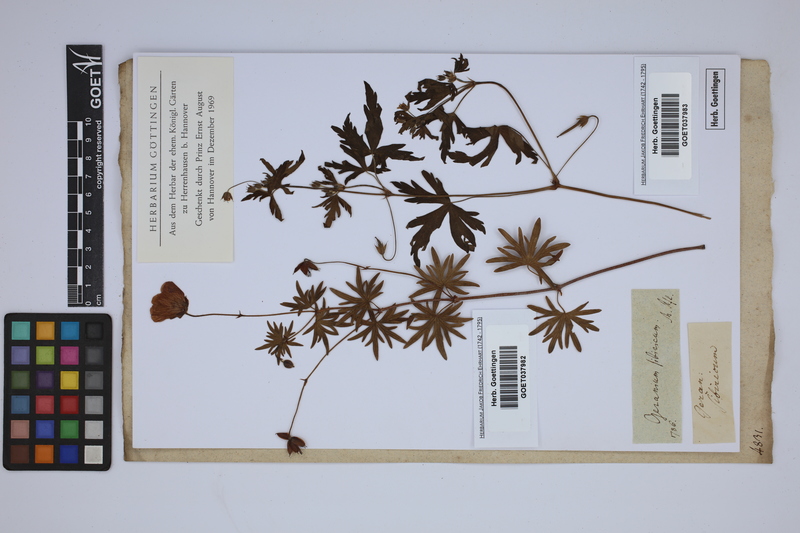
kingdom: Plantae
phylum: Tracheophyta
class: Magnoliopsida
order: Geraniales
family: Geraniaceae
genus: Geranium
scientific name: Geranium sibiricum
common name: Siberian crane's-bill
